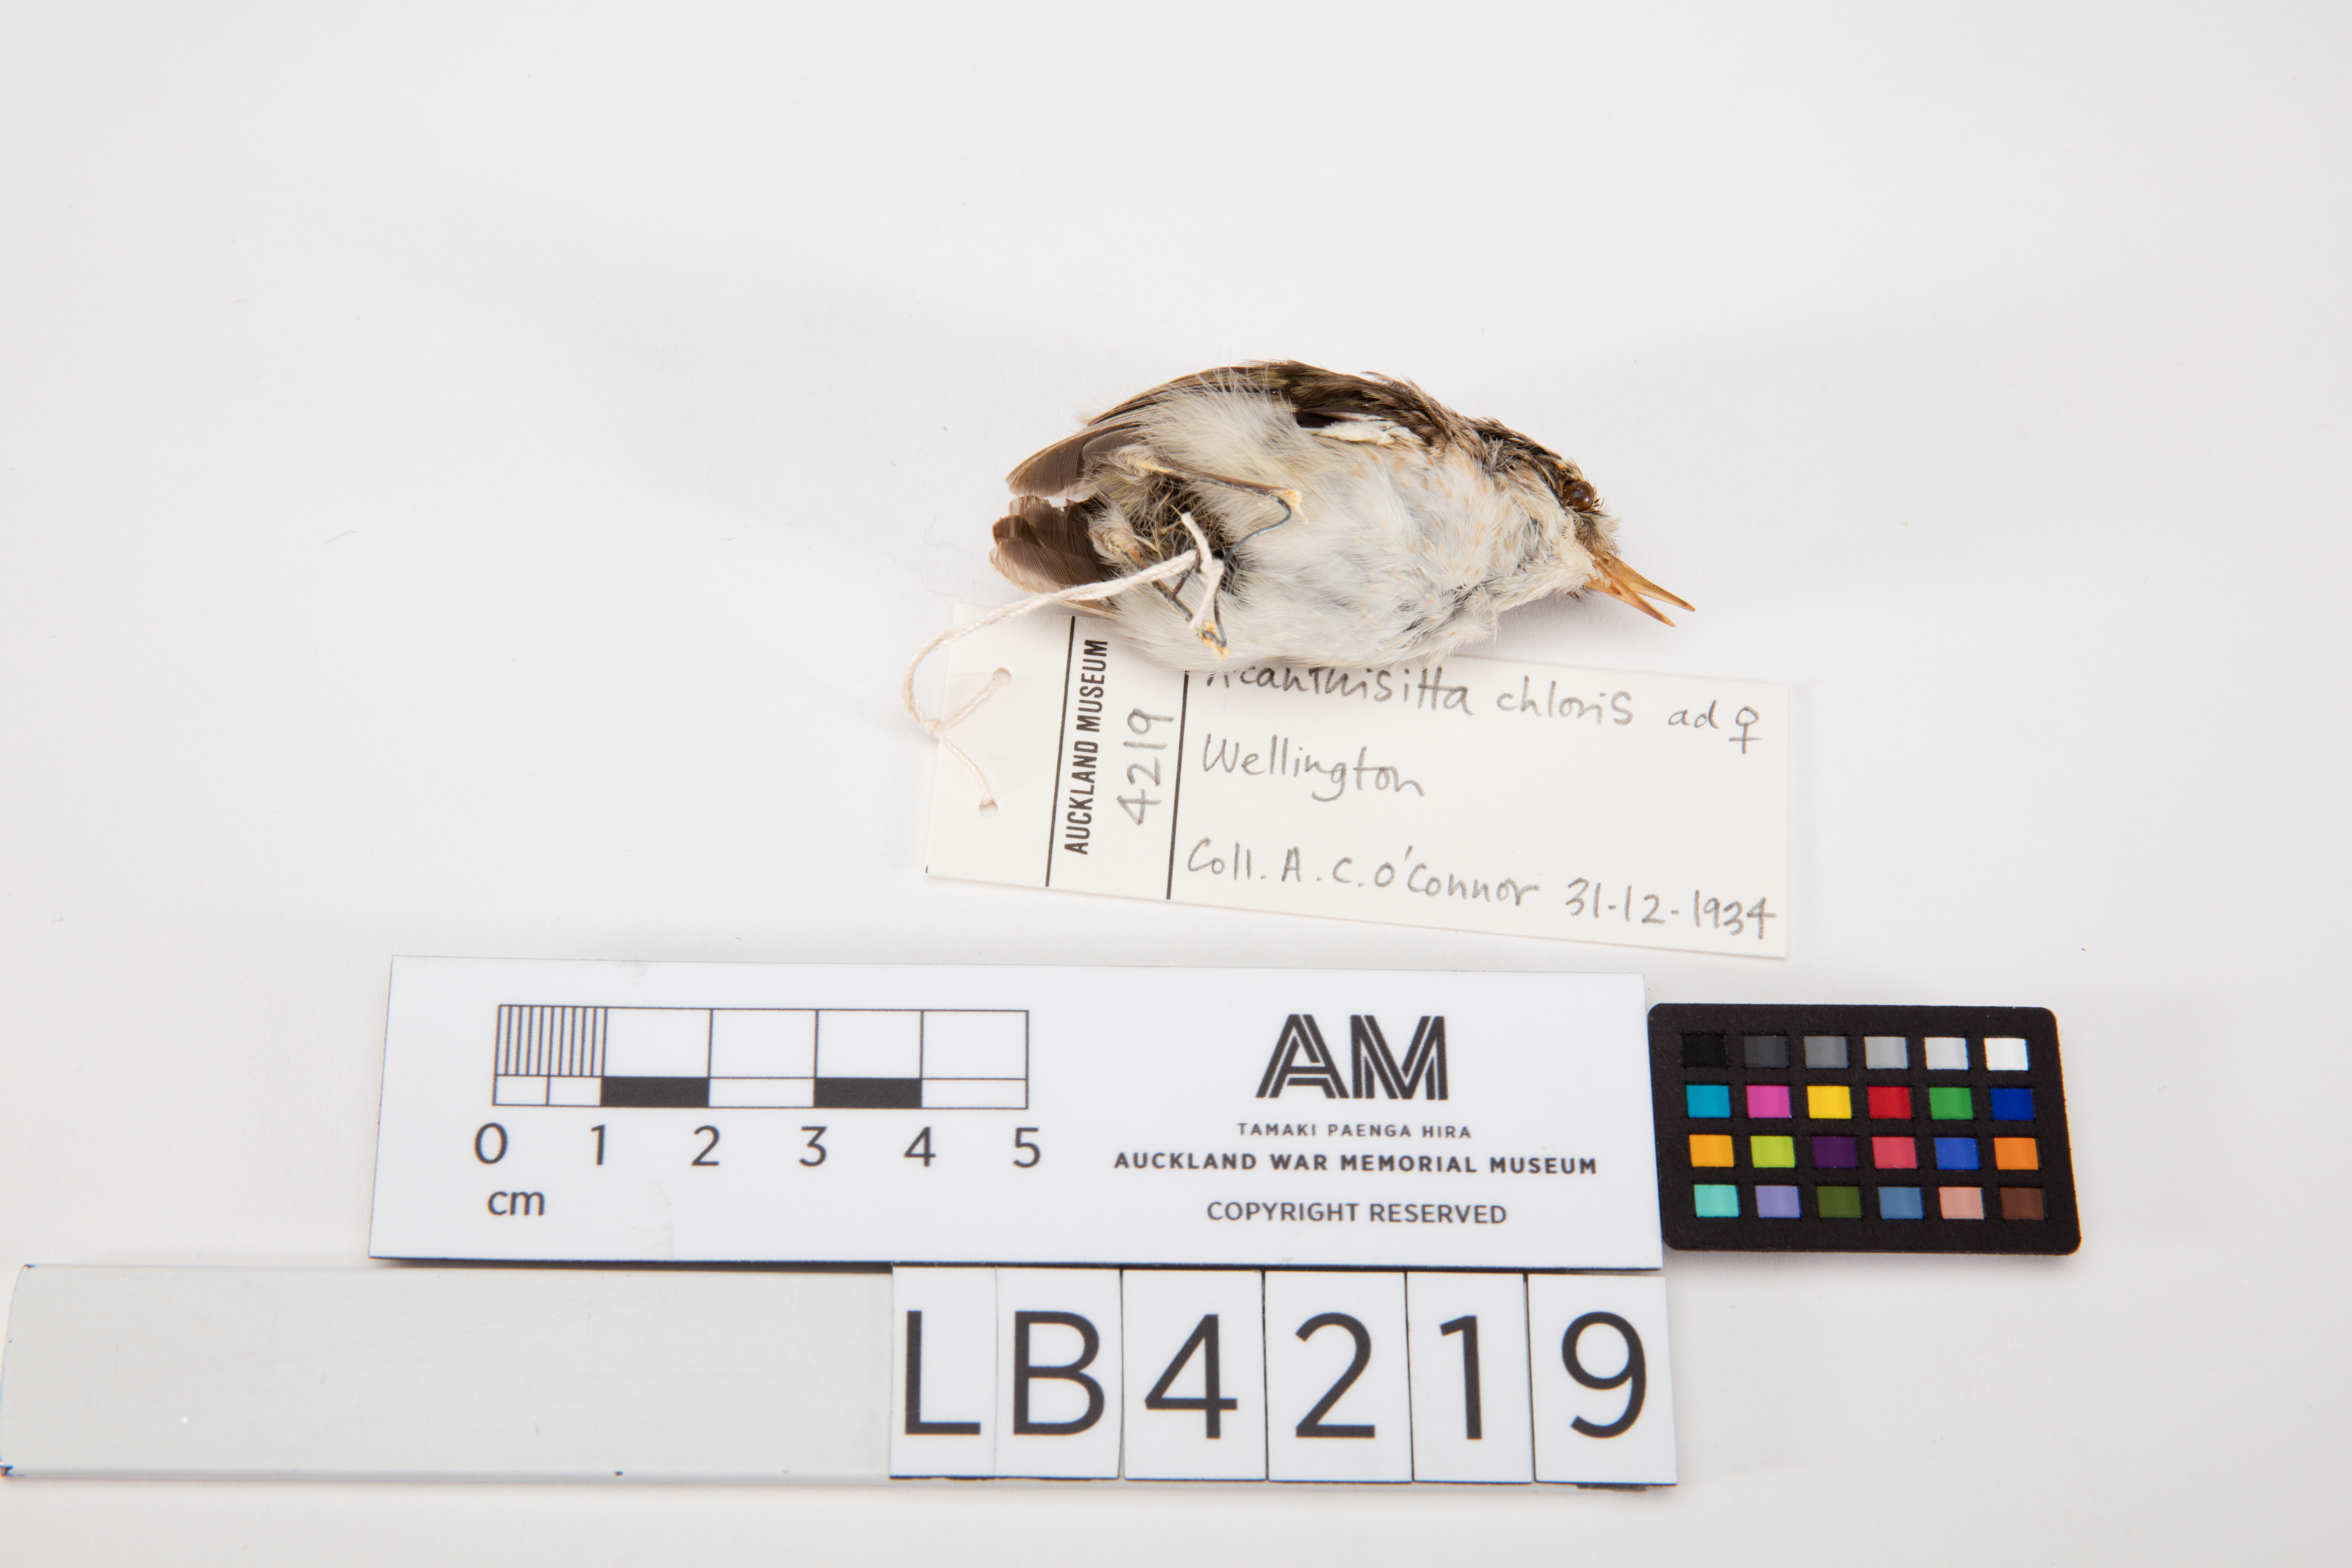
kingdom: Animalia
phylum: Chordata
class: Aves
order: Passeriformes
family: Acanthisittidae
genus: Acanthisitta
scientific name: Acanthisitta chloris
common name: Rifleman
